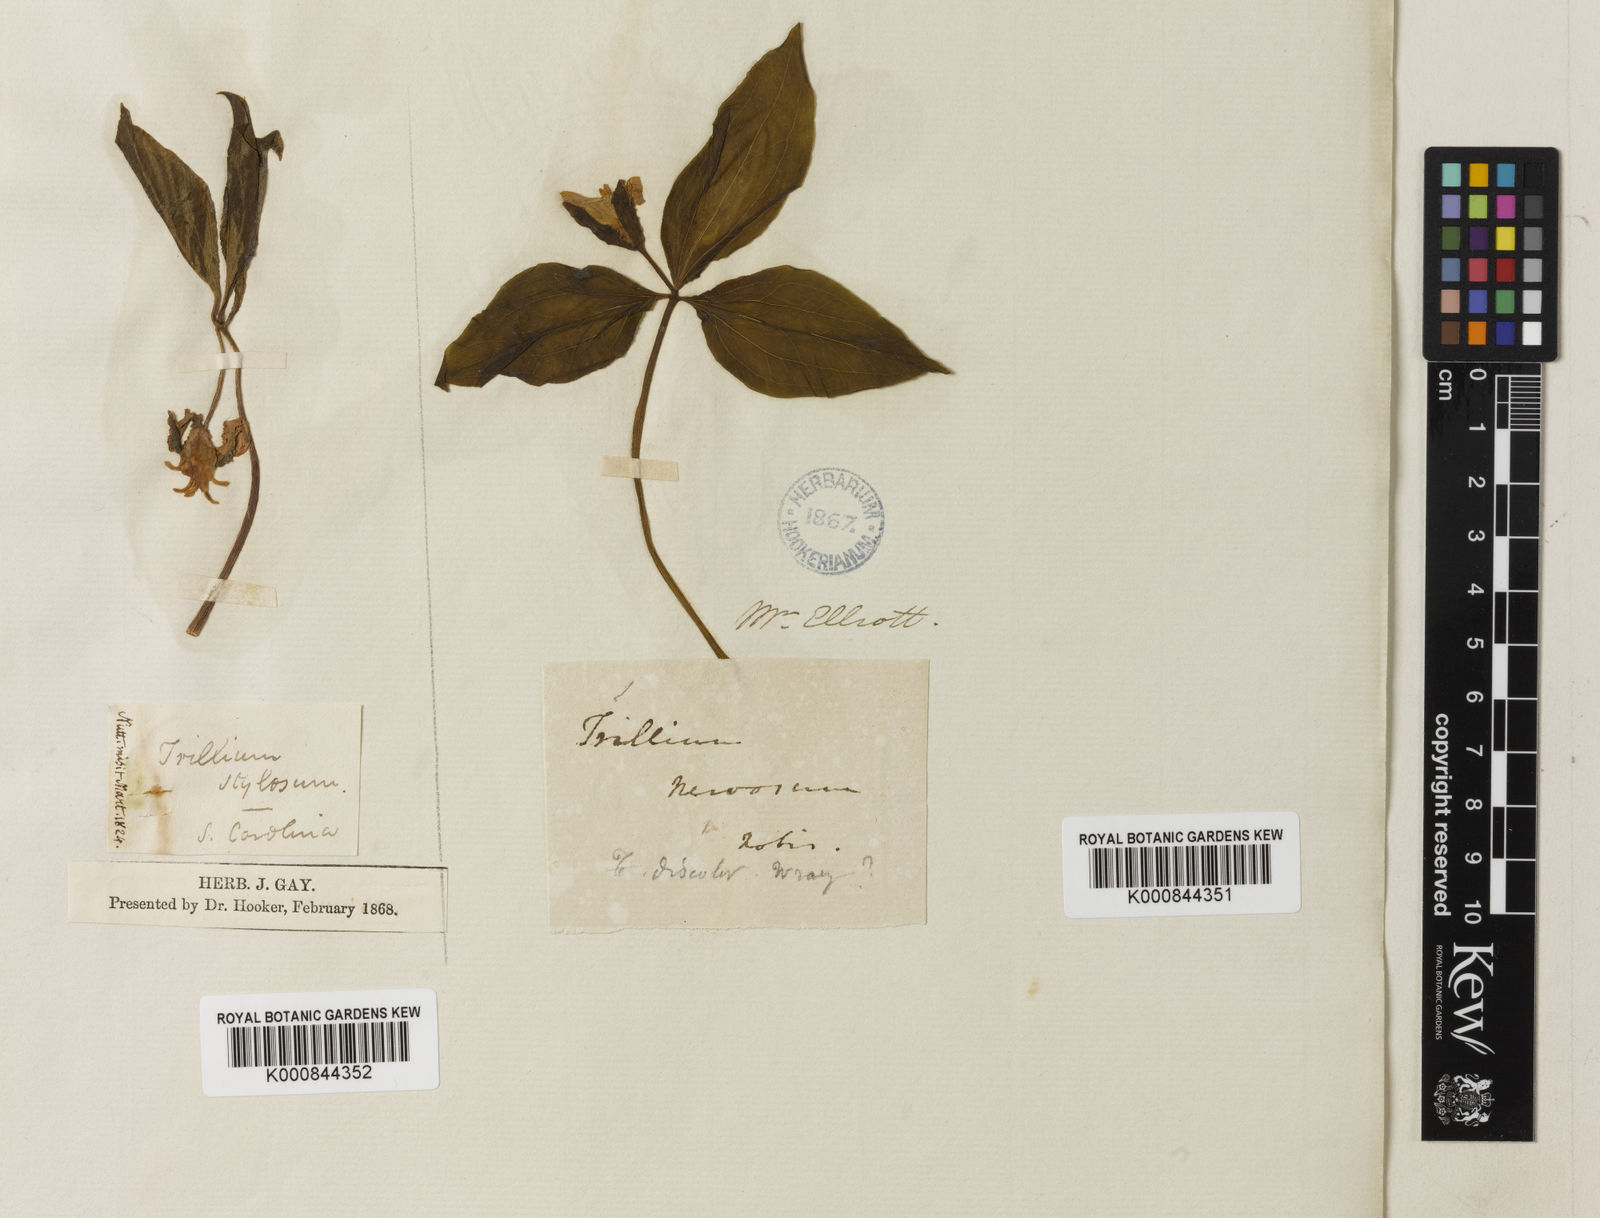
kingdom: Plantae
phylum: Tracheophyta
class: Liliopsida
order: Liliales
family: Melanthiaceae
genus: Trillium
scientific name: Trillium catesbaei
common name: Bashful trillium
